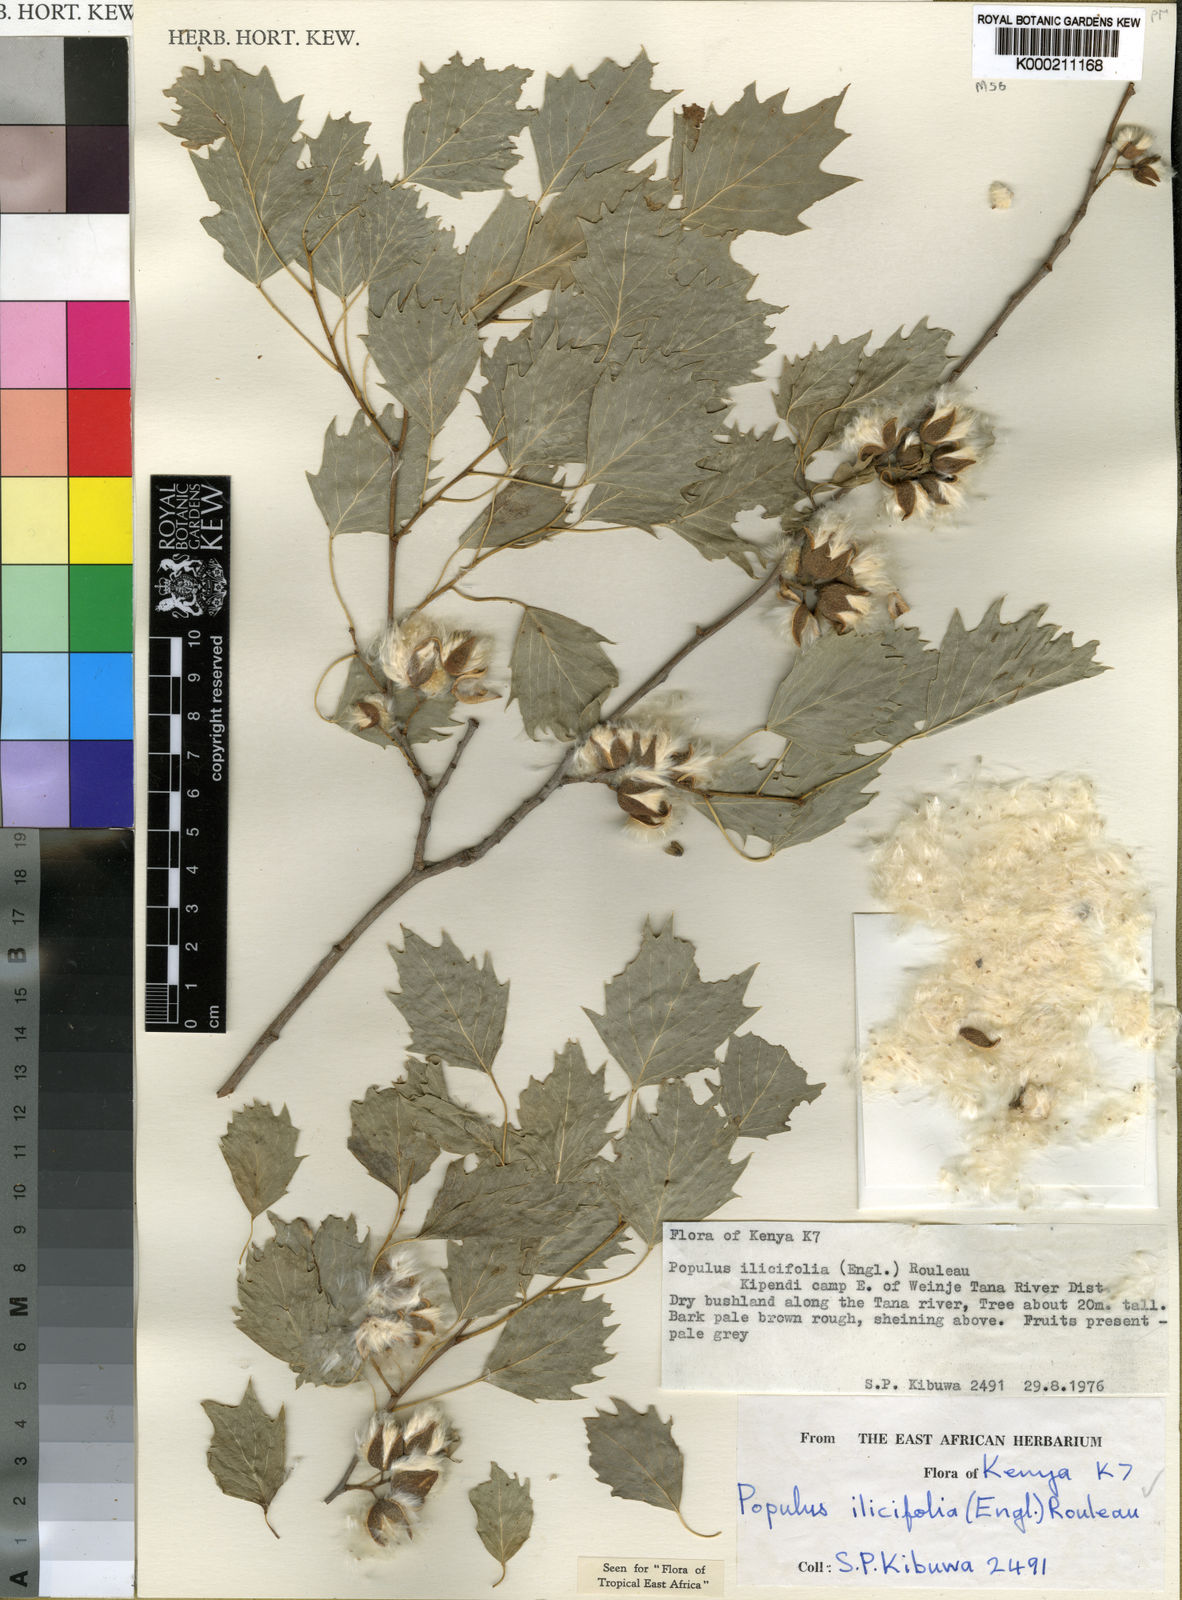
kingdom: Plantae
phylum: Tracheophyta
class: Magnoliopsida
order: Malpighiales
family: Salicaceae
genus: Populus
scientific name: Populus ilicifolia
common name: Tana river poplar
